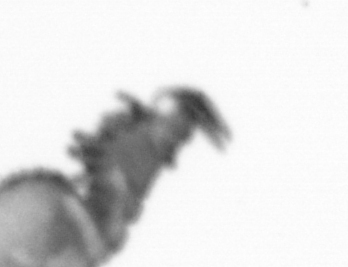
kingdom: Animalia
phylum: Annelida
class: Polychaeta
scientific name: Polychaeta
